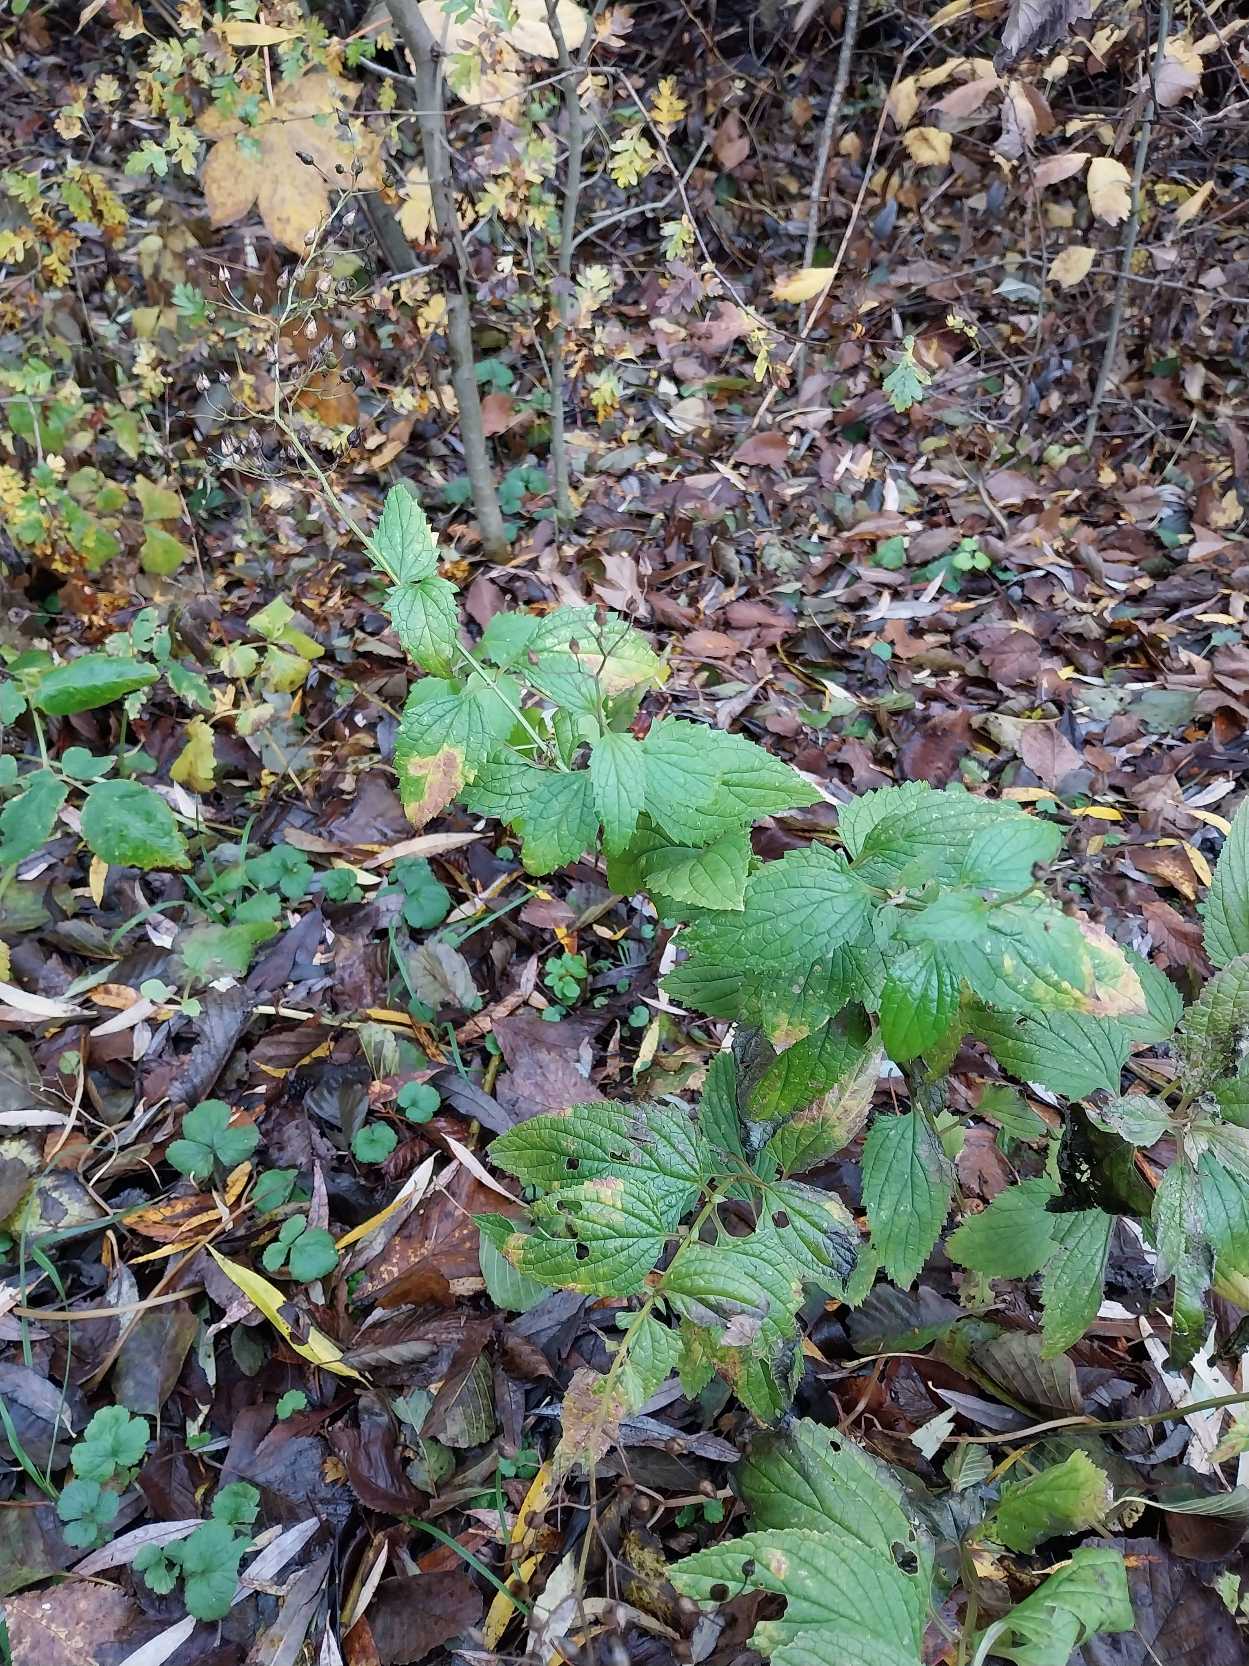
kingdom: Plantae
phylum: Tracheophyta
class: Magnoliopsida
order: Lamiales
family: Scrophulariaceae
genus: Scrophularia
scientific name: Scrophularia nodosa
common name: Knoldet brunrod
